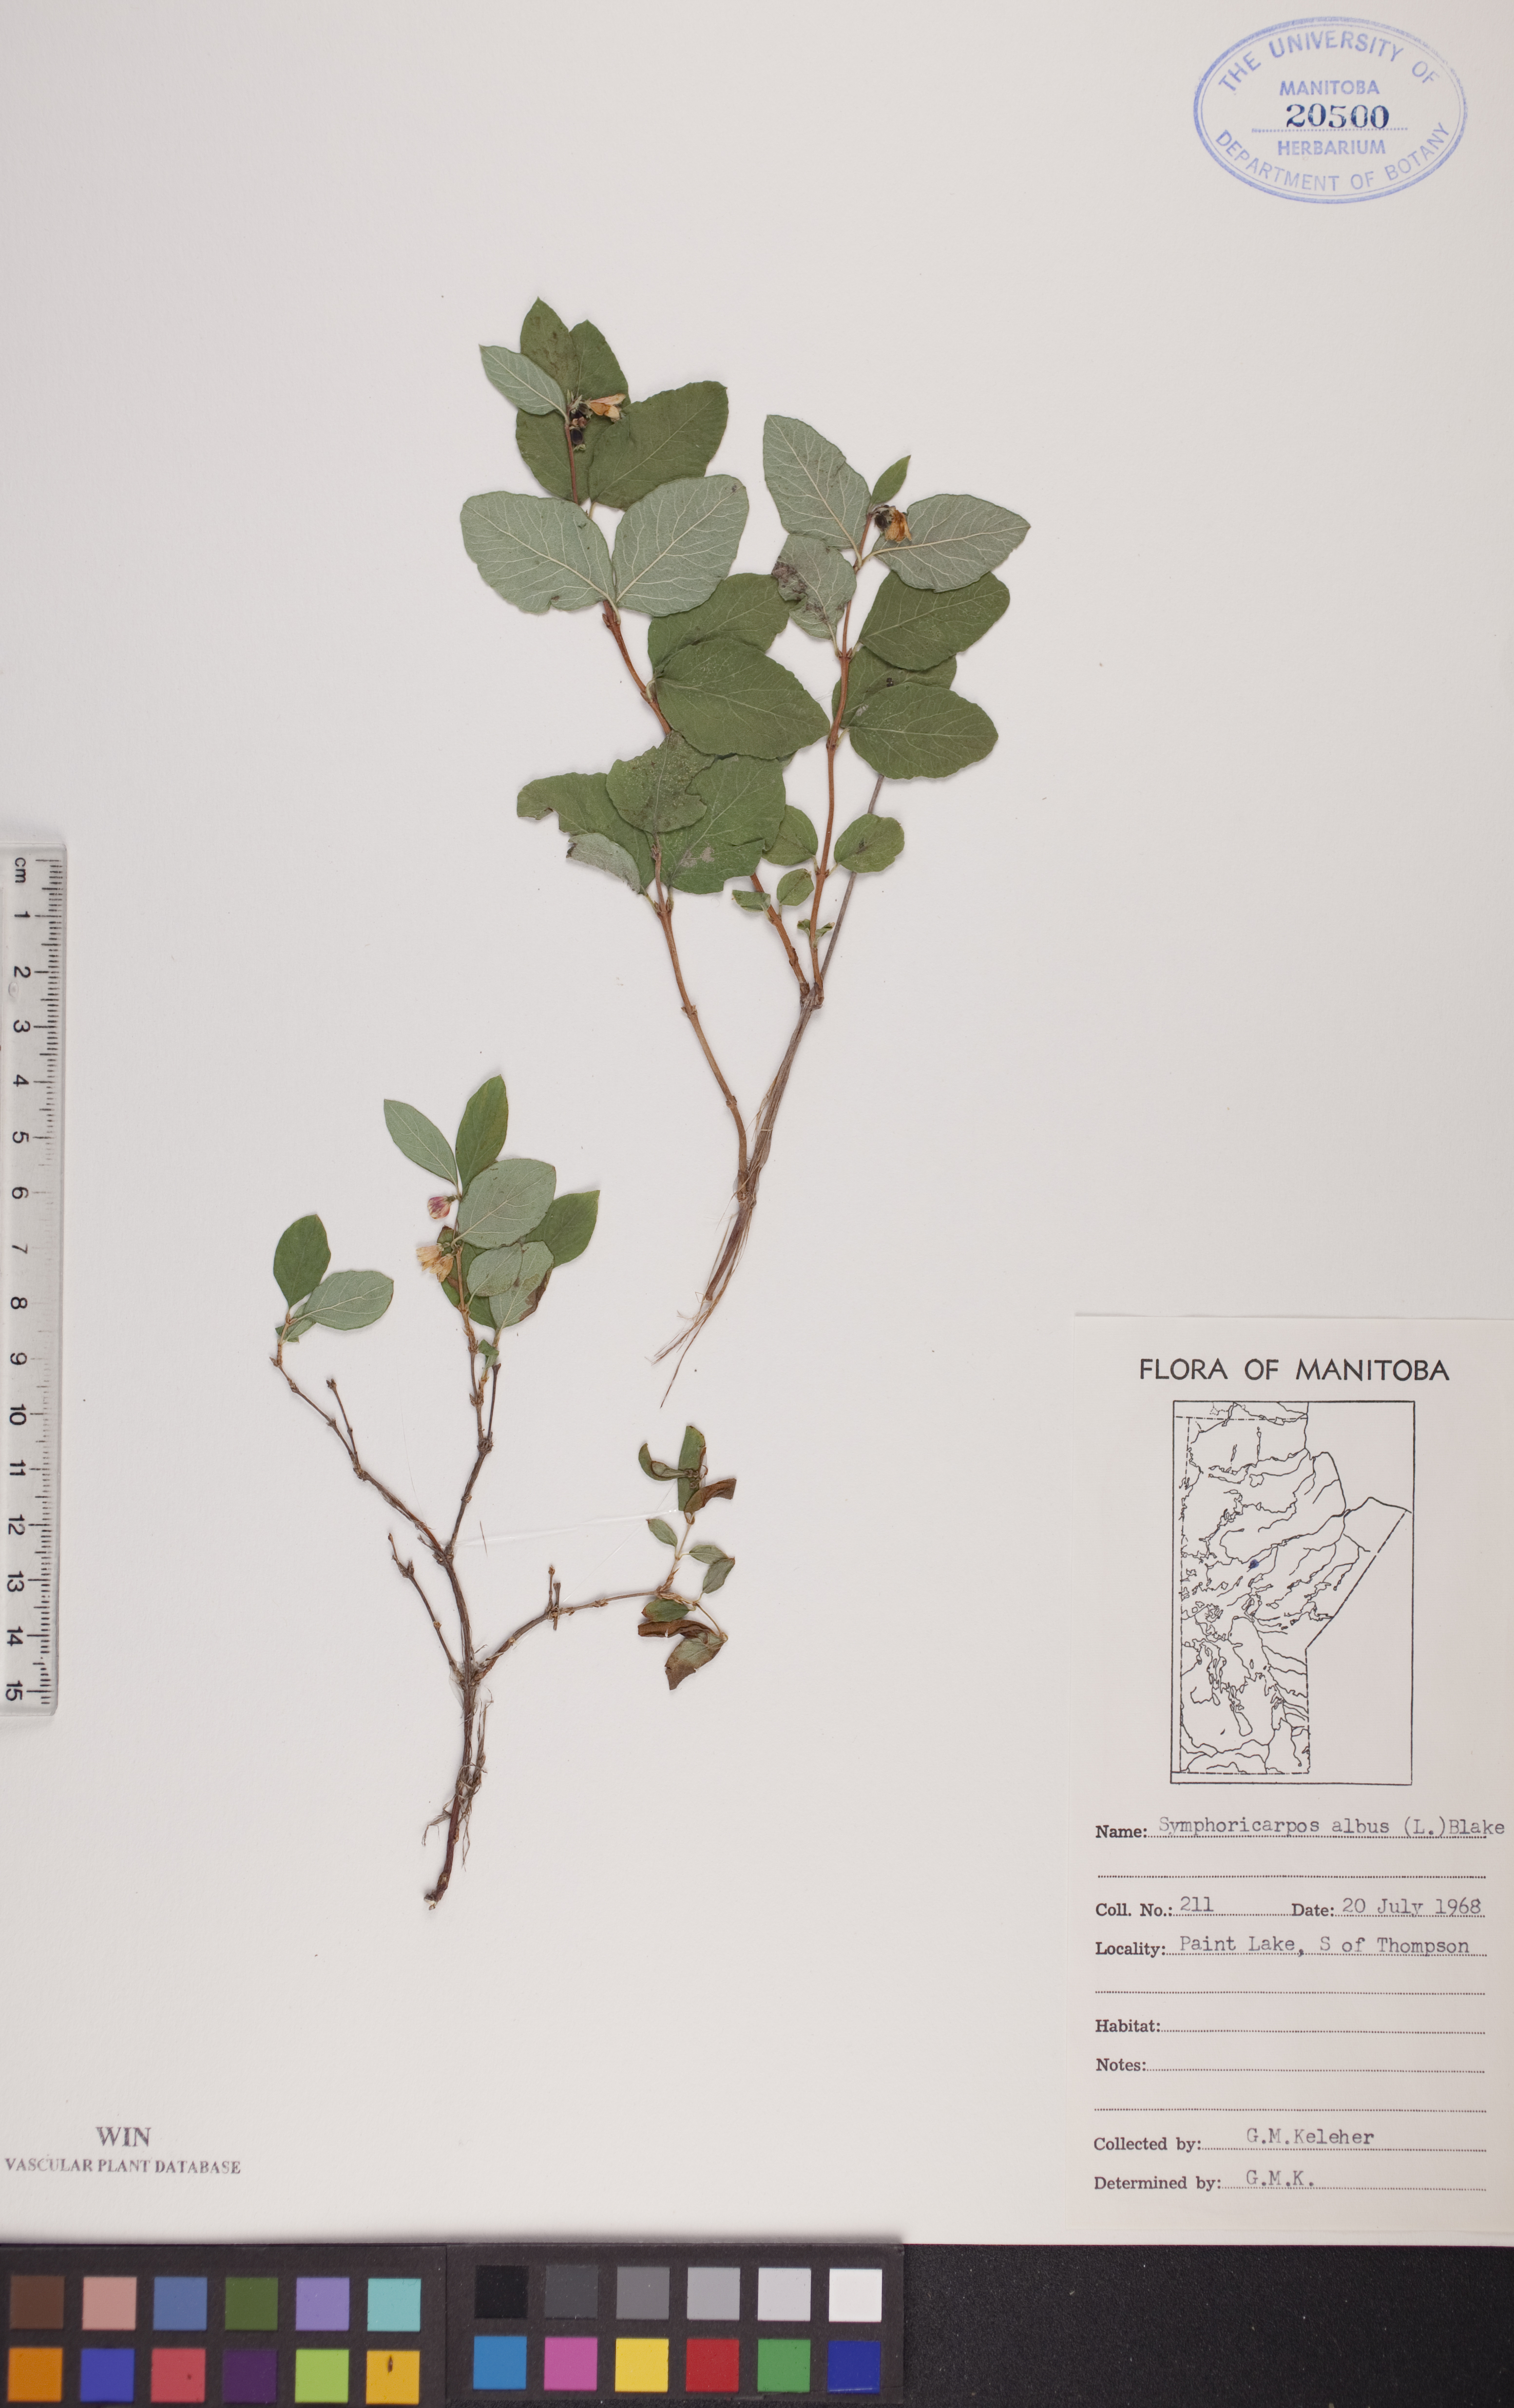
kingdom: Plantae
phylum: Tracheophyta
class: Magnoliopsida
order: Dipsacales
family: Caprifoliaceae
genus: Symphoricarpos
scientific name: Symphoricarpos albus
